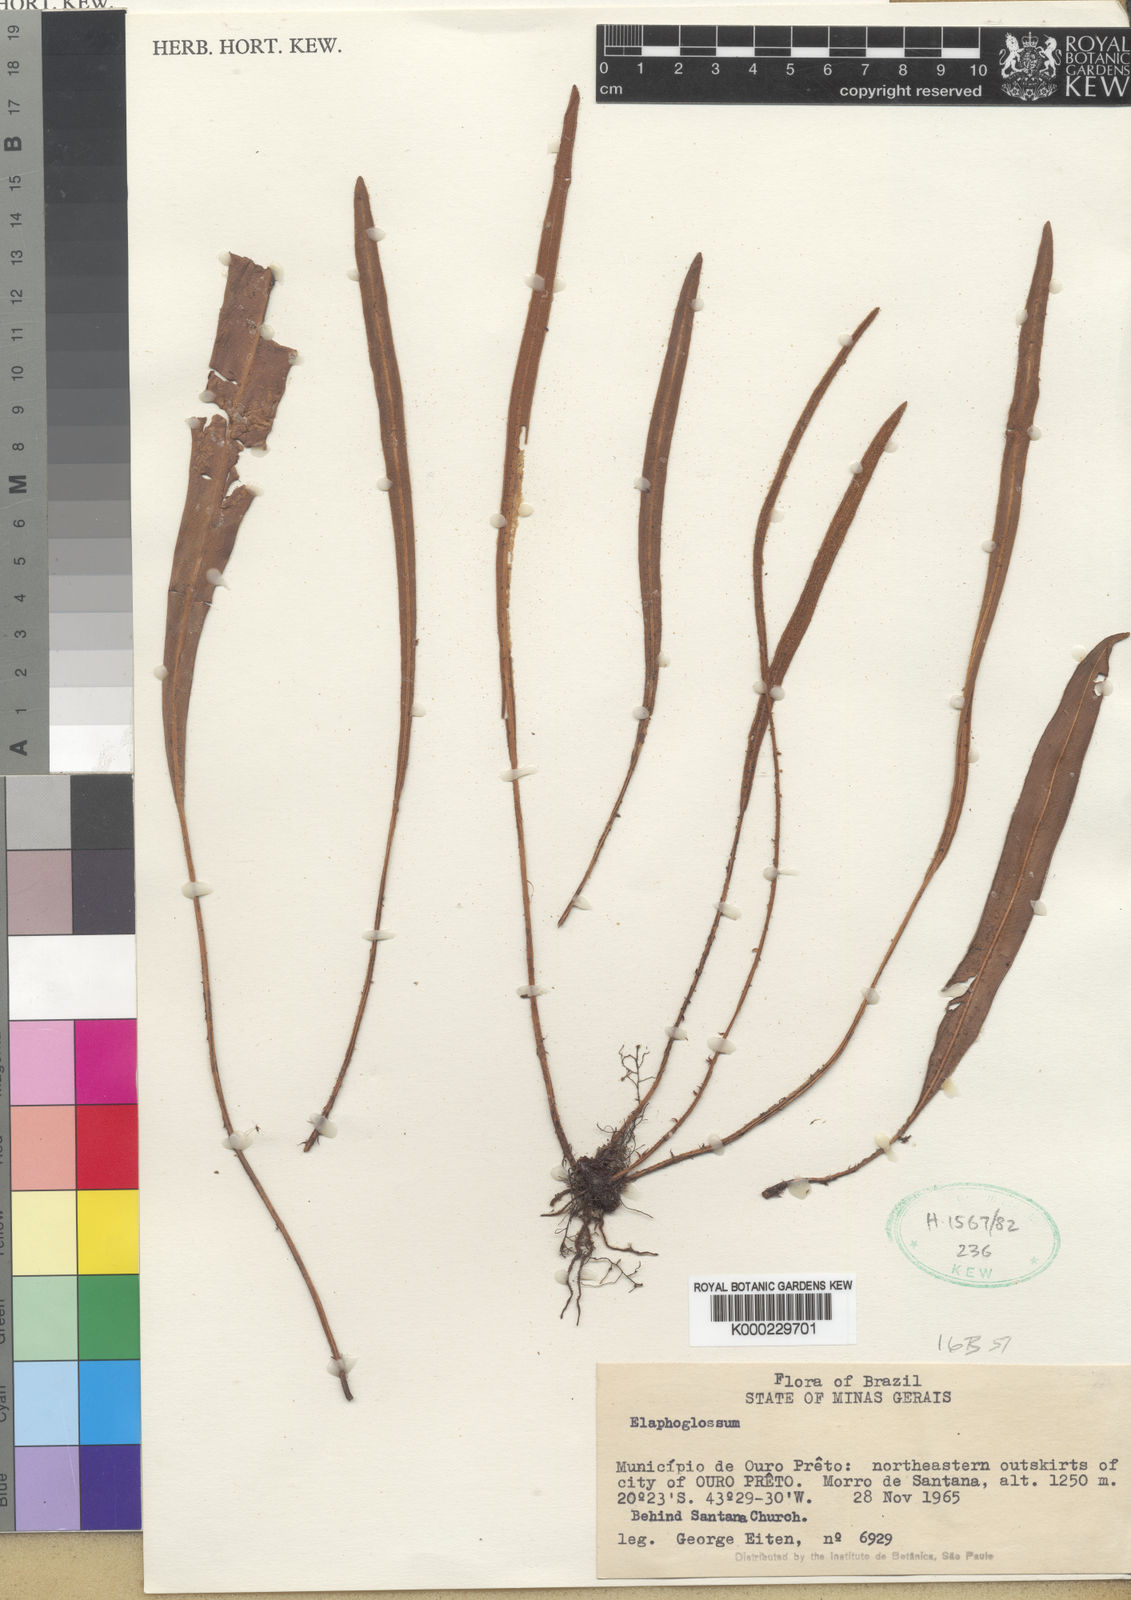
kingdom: Plantae
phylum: Tracheophyta
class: Polypodiopsida
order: Polypodiales
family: Dryopteridaceae
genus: Elaphoglossum
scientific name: Elaphoglossum
